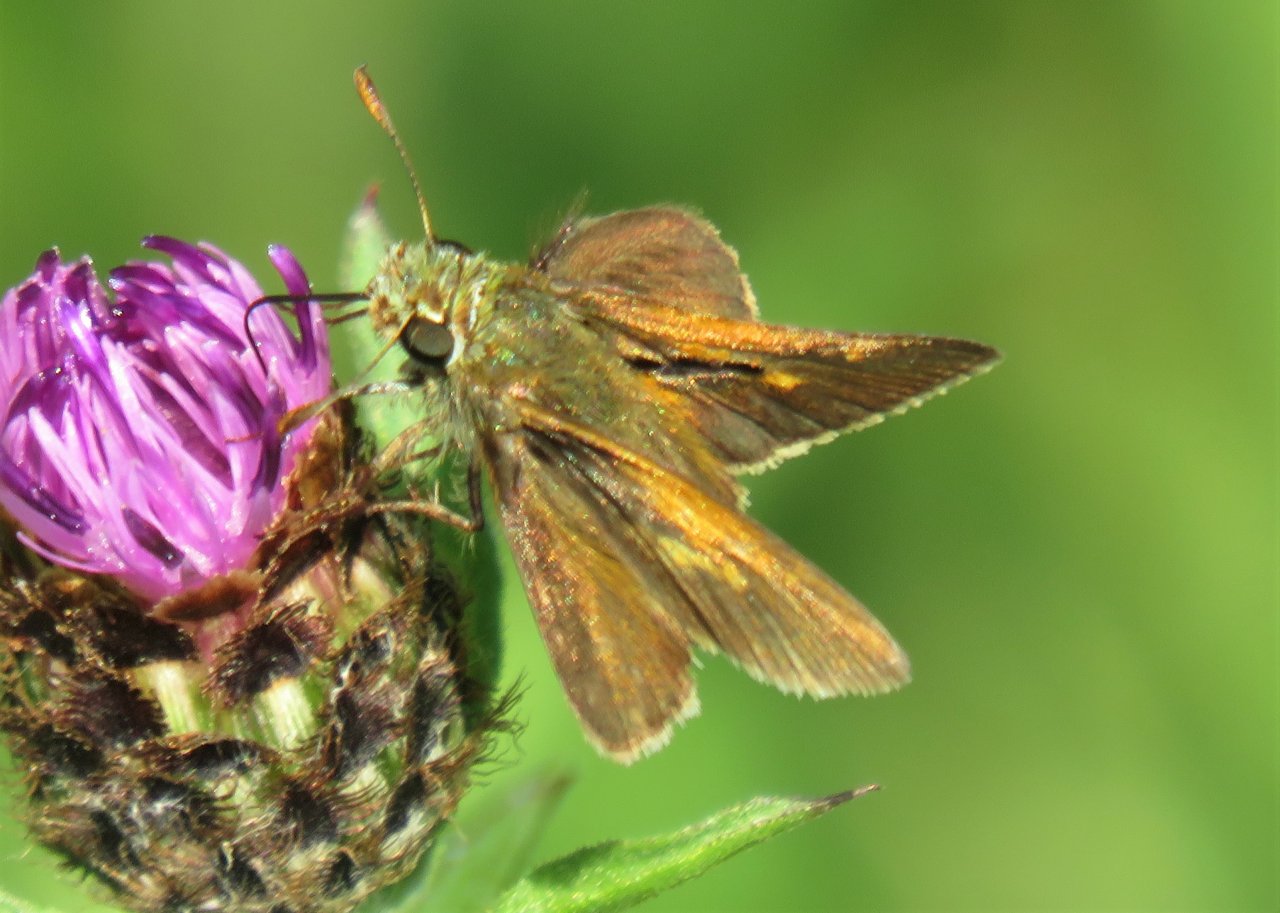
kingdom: Animalia
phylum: Arthropoda
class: Insecta
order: Lepidoptera
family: Hesperiidae
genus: Polites
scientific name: Polites themistocles
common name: Tawny-edged Skipper
